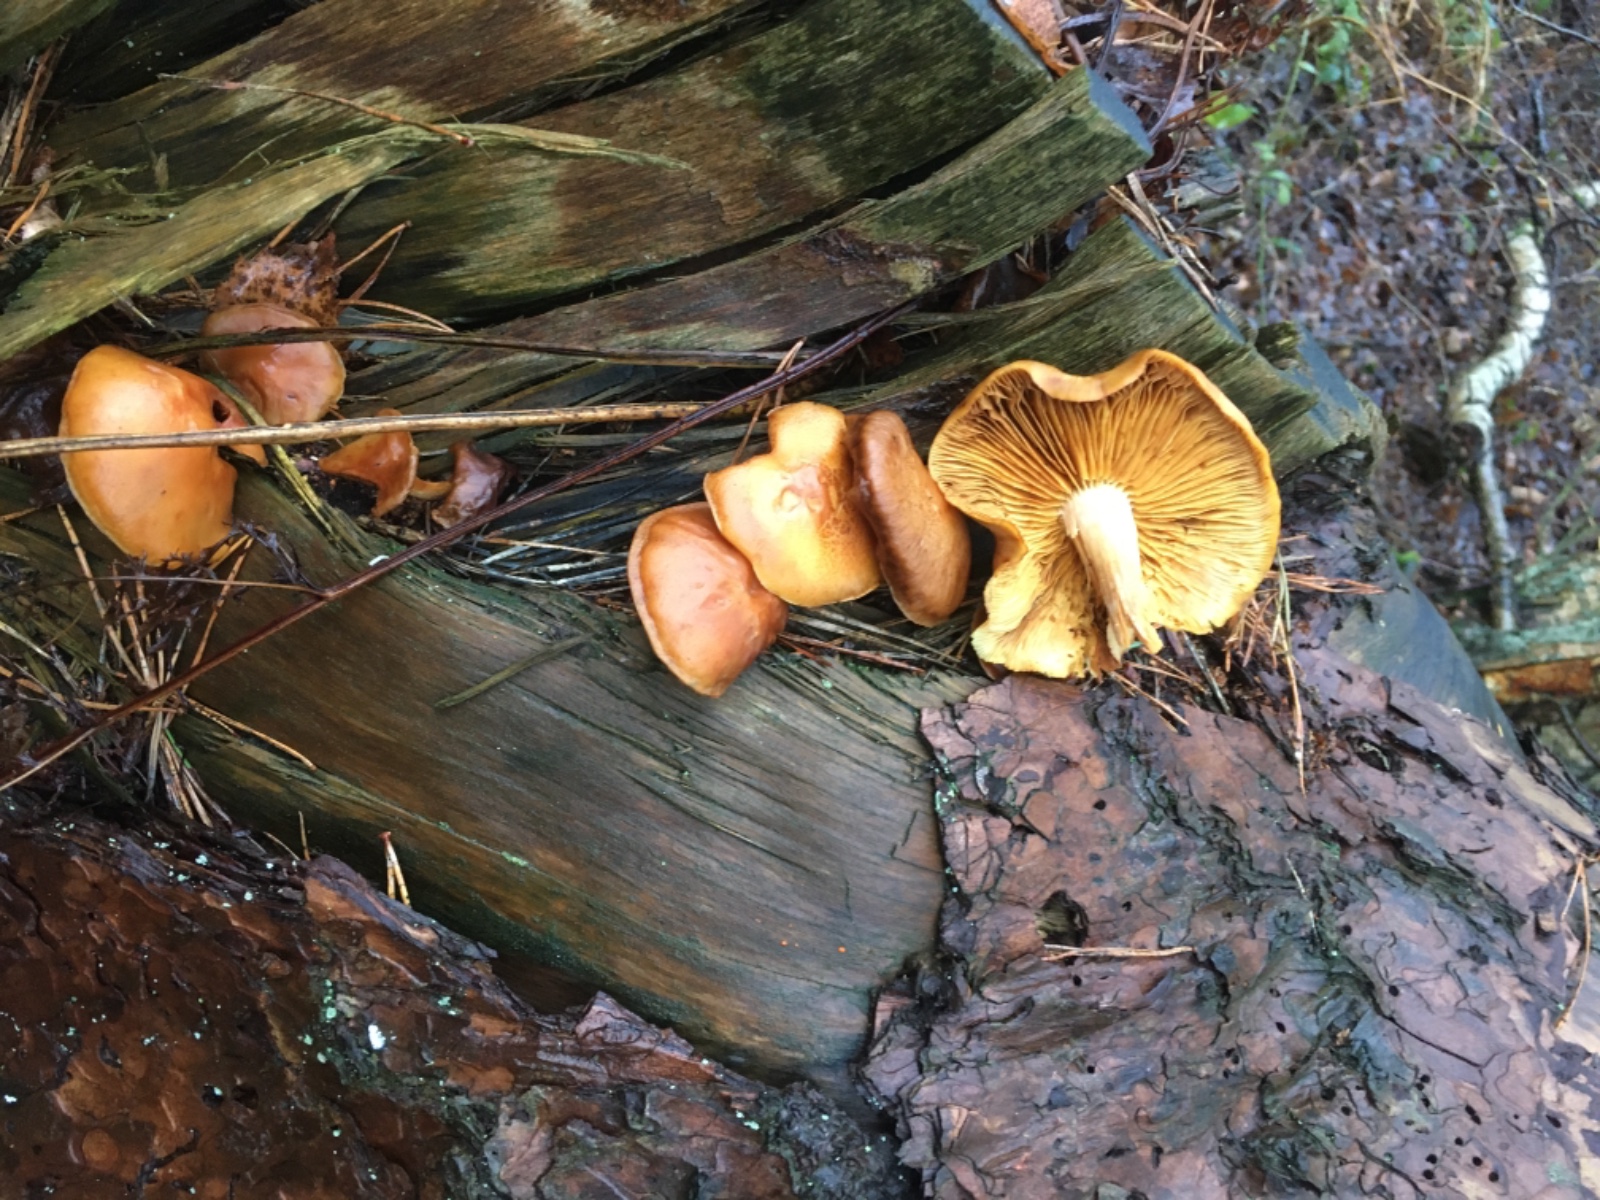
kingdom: Fungi
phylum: Basidiomycota
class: Agaricomycetes
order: Agaricales
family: Hymenogastraceae
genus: Gymnopilus
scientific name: Gymnopilus penetrans
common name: plettet flammehat
